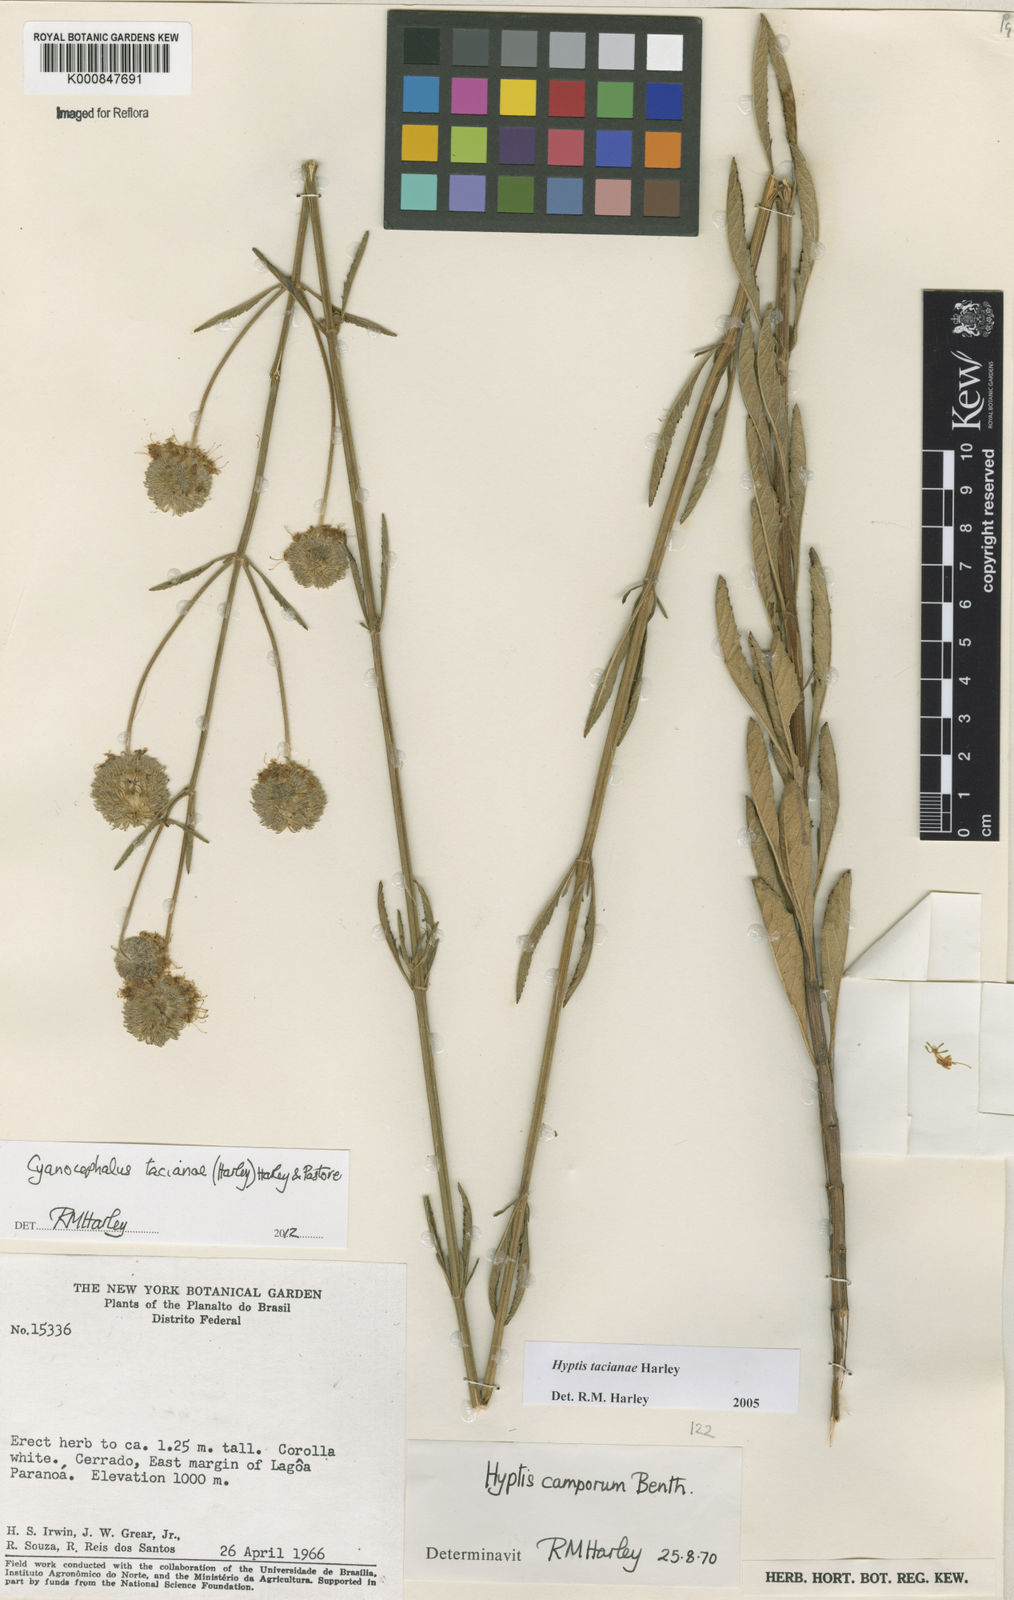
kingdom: Plantae
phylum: Tracheophyta
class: Magnoliopsida
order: Lamiales
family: Lamiaceae
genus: Cyanocephalus
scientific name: Cyanocephalus tacianae
